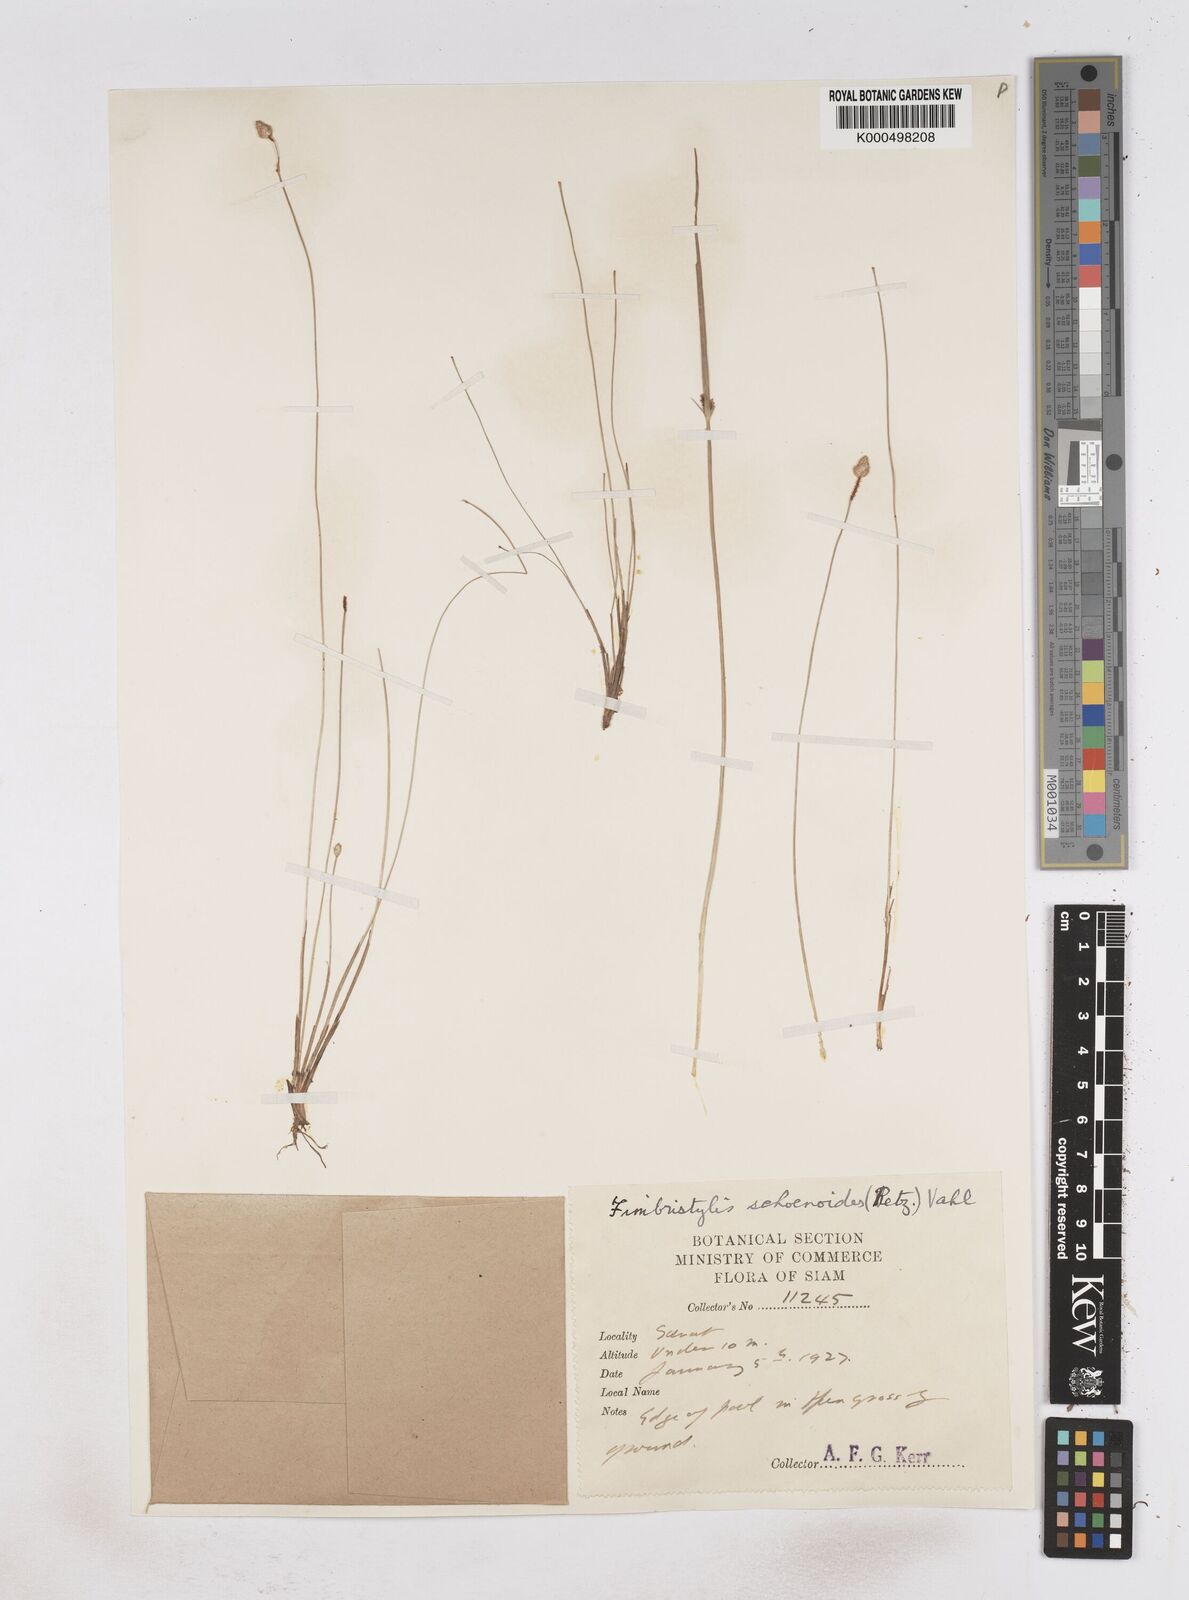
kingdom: Plantae
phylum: Tracheophyta
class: Liliopsida
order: Poales
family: Cyperaceae
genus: Fimbristylis
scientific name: Fimbristylis schoenoides
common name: Ditch fimbry
